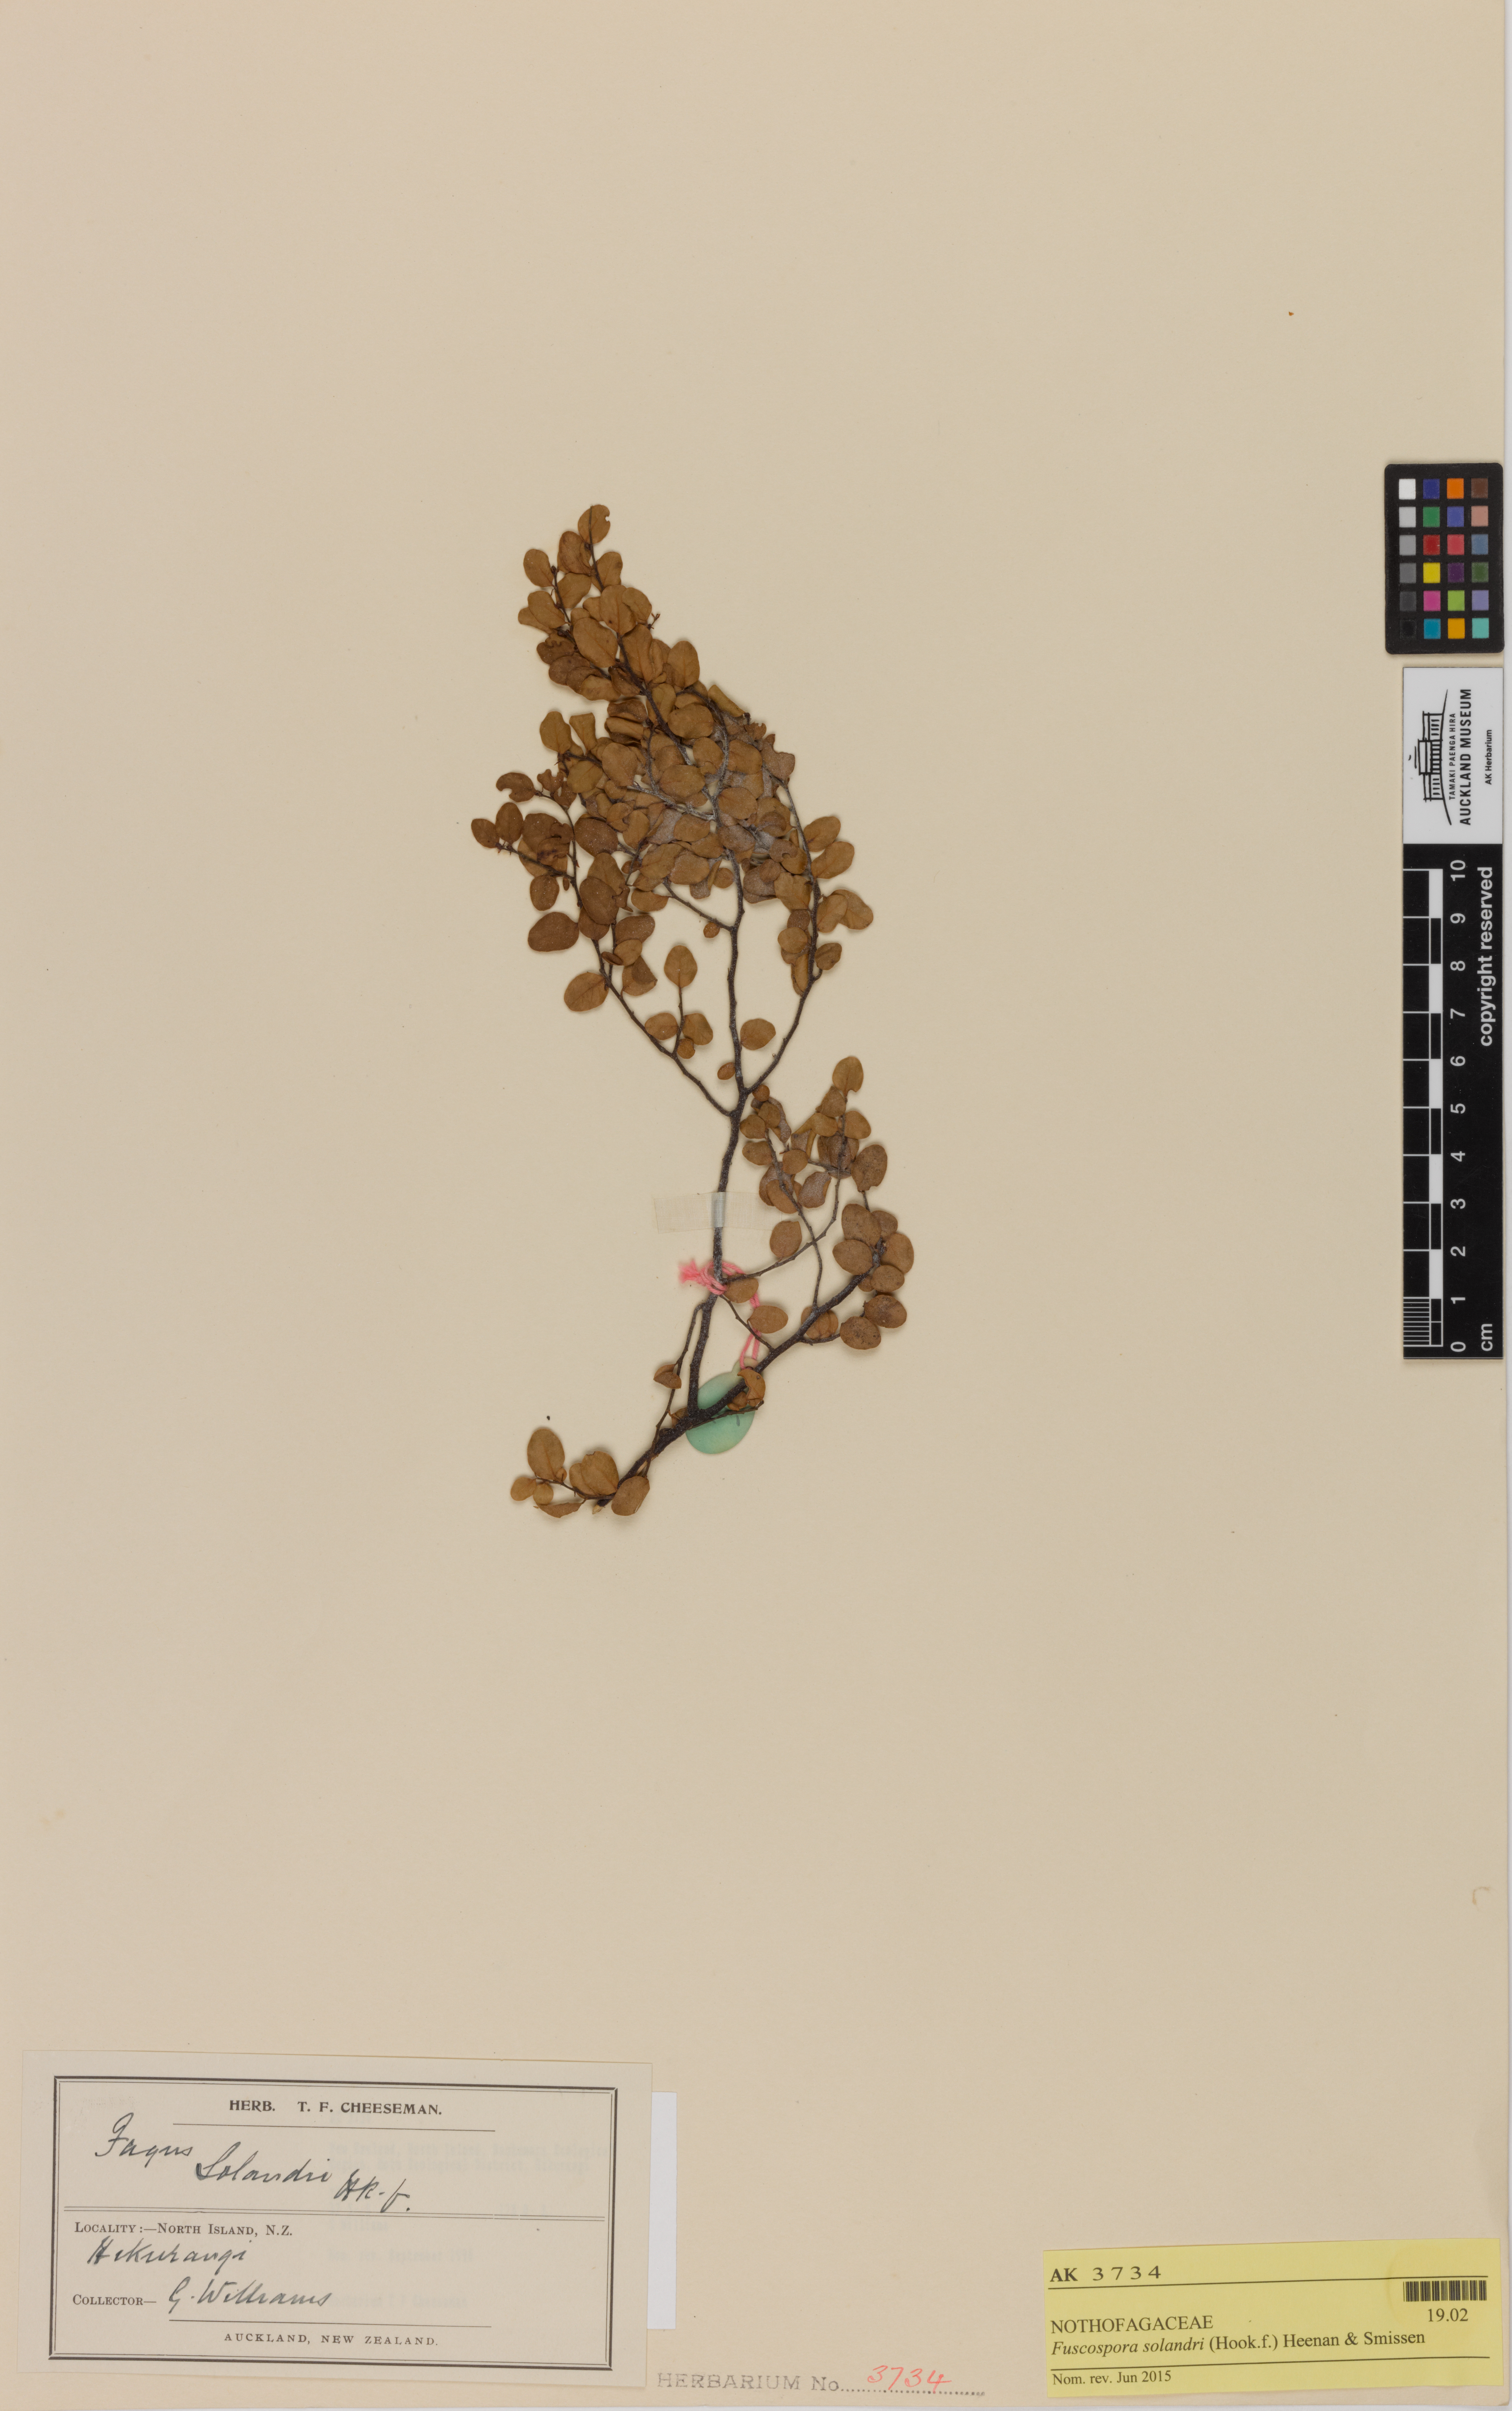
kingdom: Plantae
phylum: Tracheophyta
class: Magnoliopsida
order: Fagales
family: Nothofagaceae
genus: Nothofagus
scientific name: Nothofagus solandri
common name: Black beech
